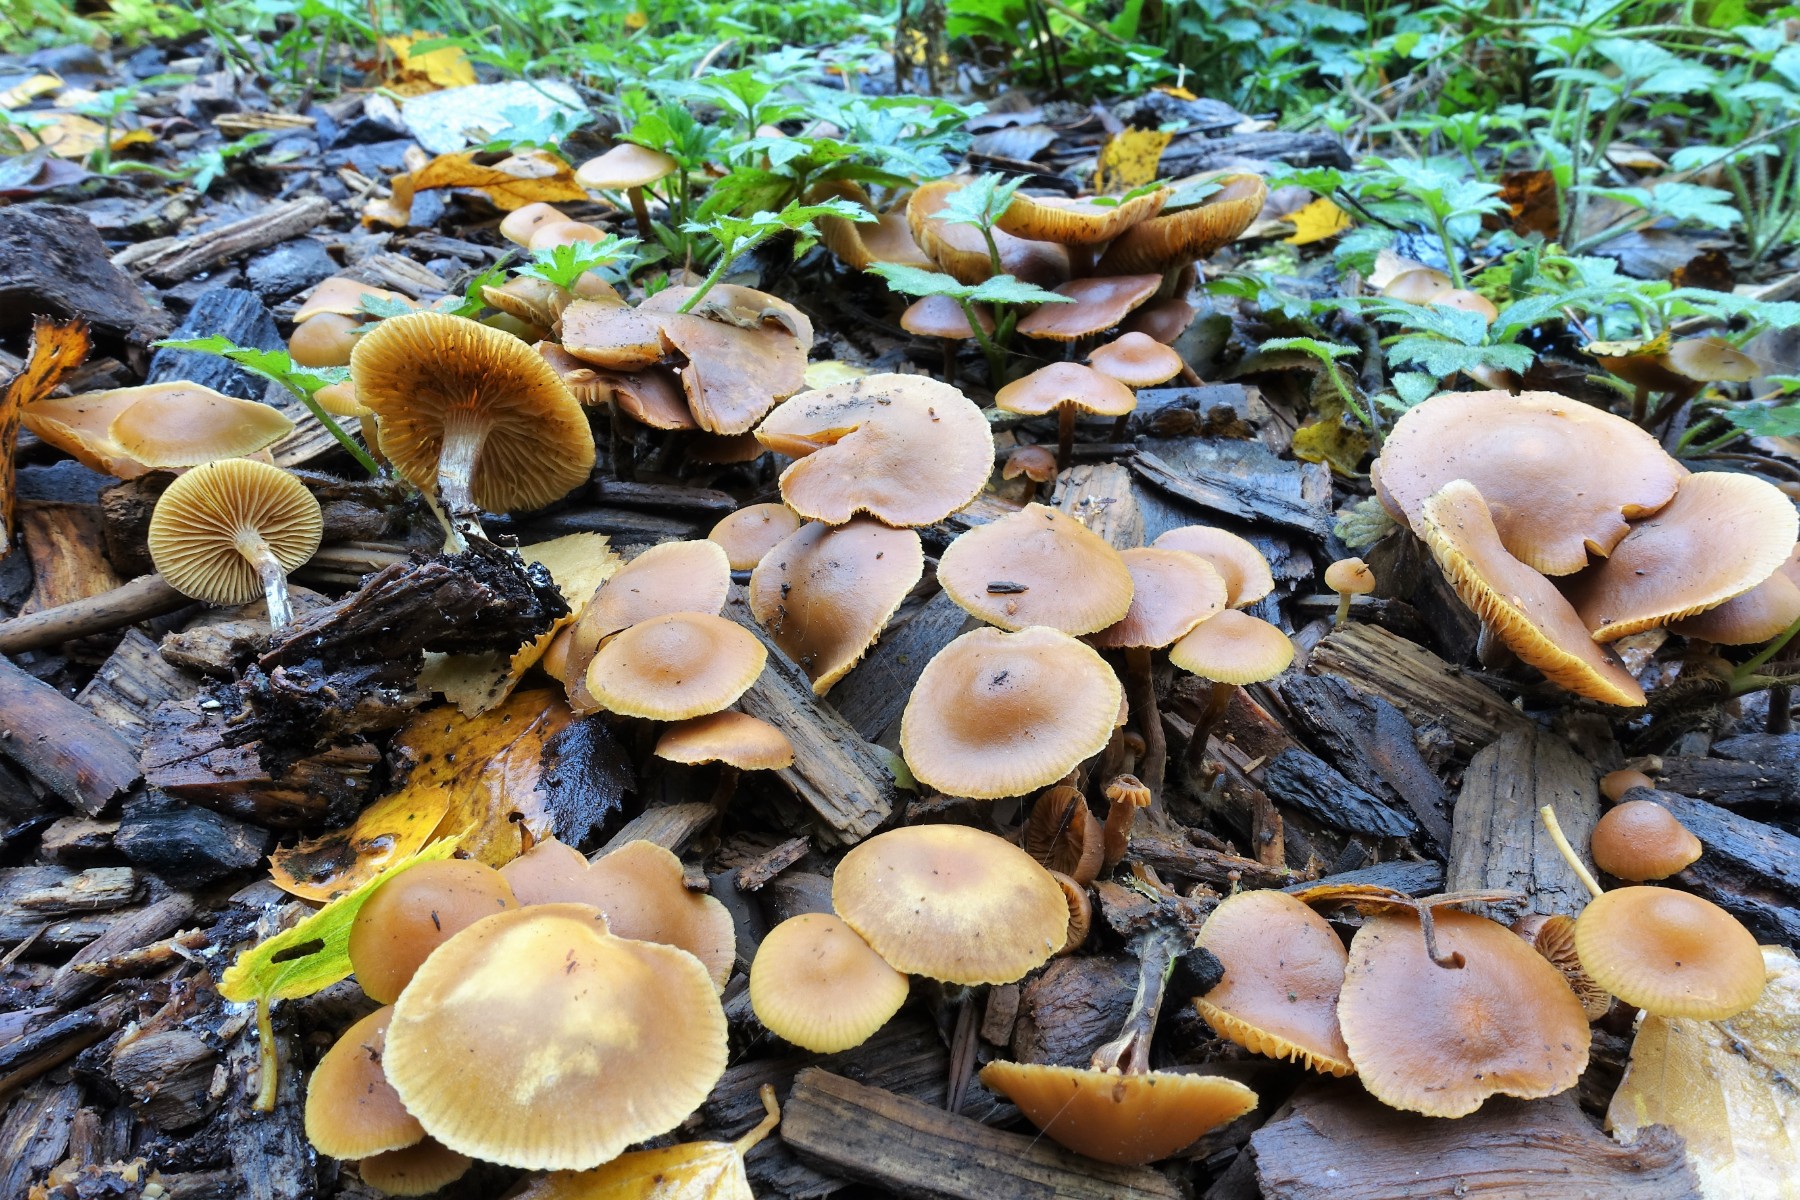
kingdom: Fungi
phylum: Basidiomycota
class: Agaricomycetes
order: Agaricales
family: Hymenogastraceae
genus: Galerina
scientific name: Galerina marginata
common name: randbæltet hjelmhat
